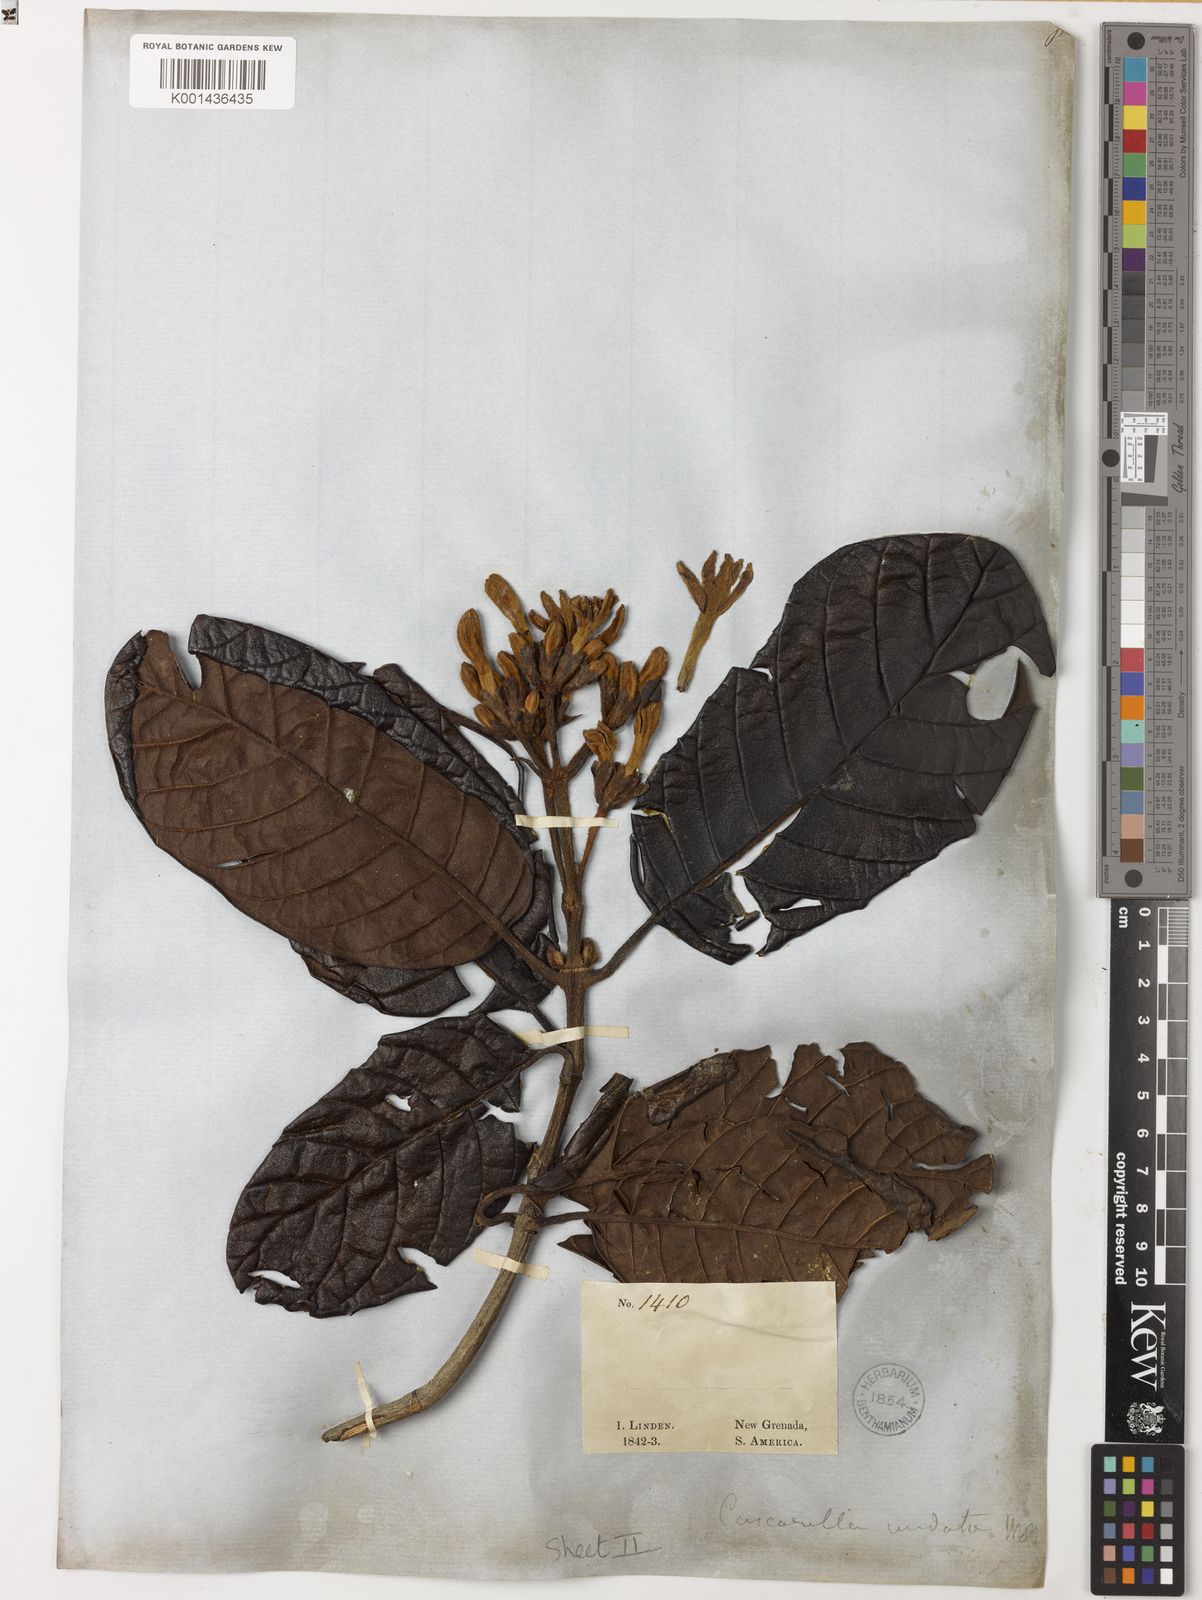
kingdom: Plantae
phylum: Tracheophyta
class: Magnoliopsida
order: Gentianales
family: Rubiaceae
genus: Ladenbergia
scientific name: Ladenbergia undata
